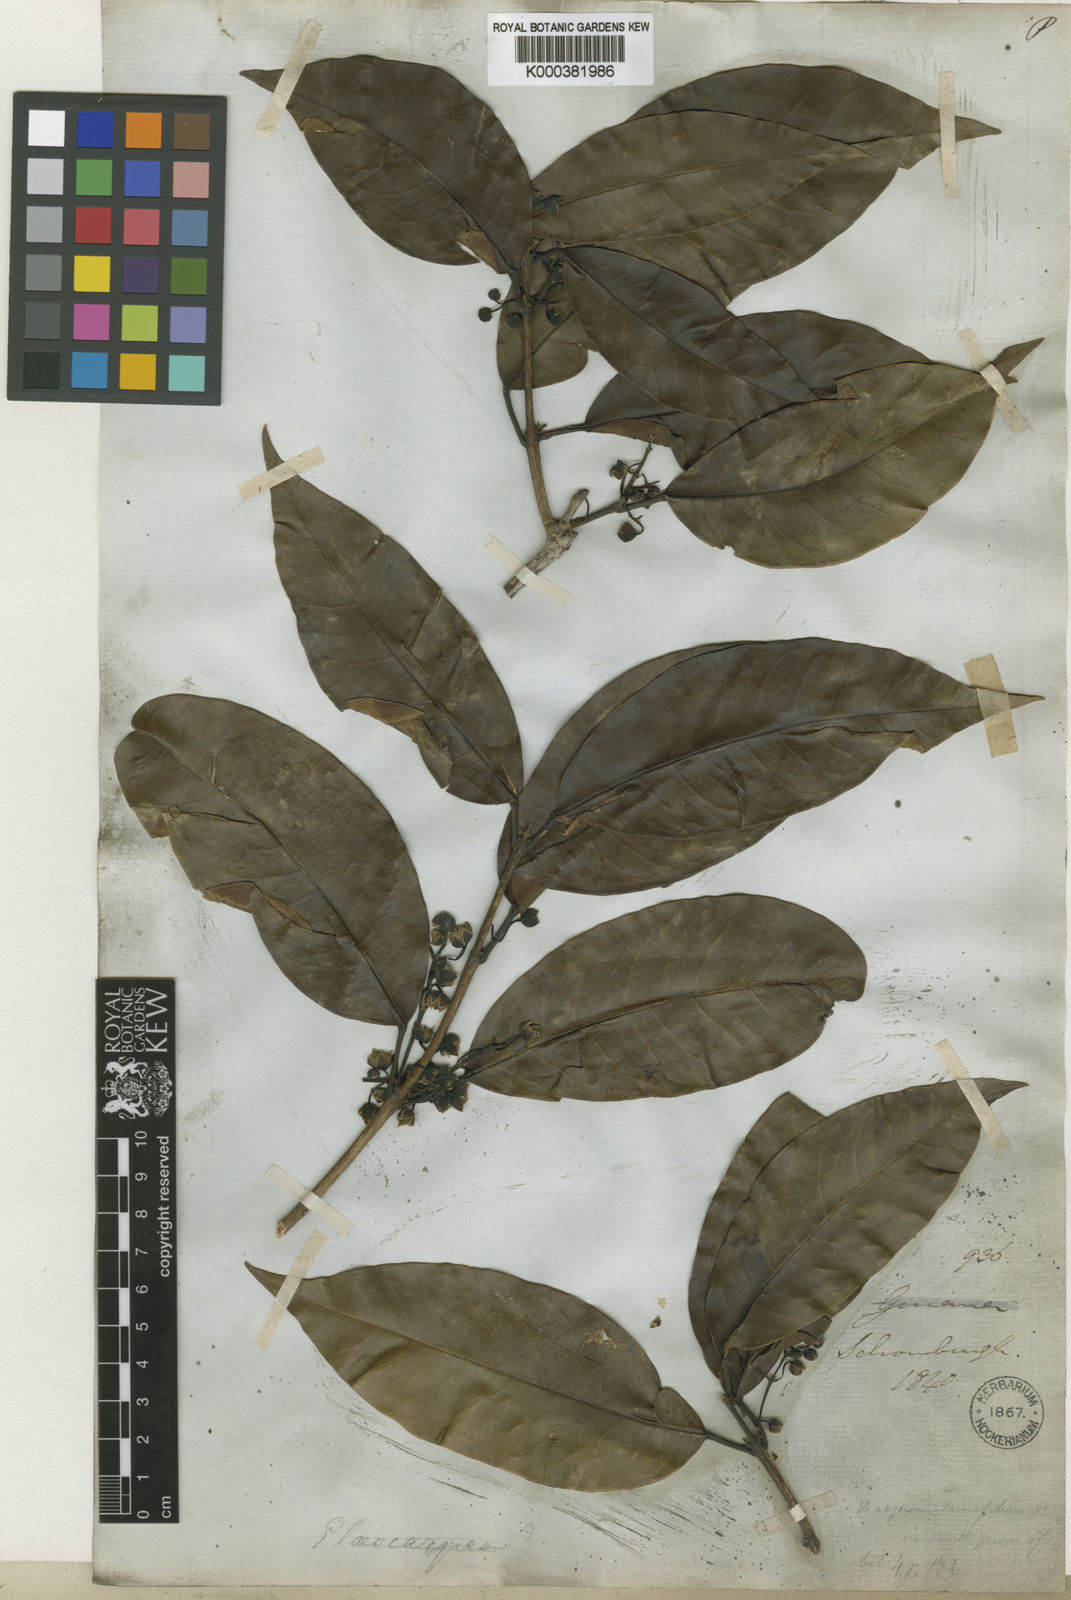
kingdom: Plantae
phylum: Tracheophyta
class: Magnoliopsida
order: Oxalidales
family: Elaeocarpaceae
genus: Sloanea
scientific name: Sloanea laurifolia
